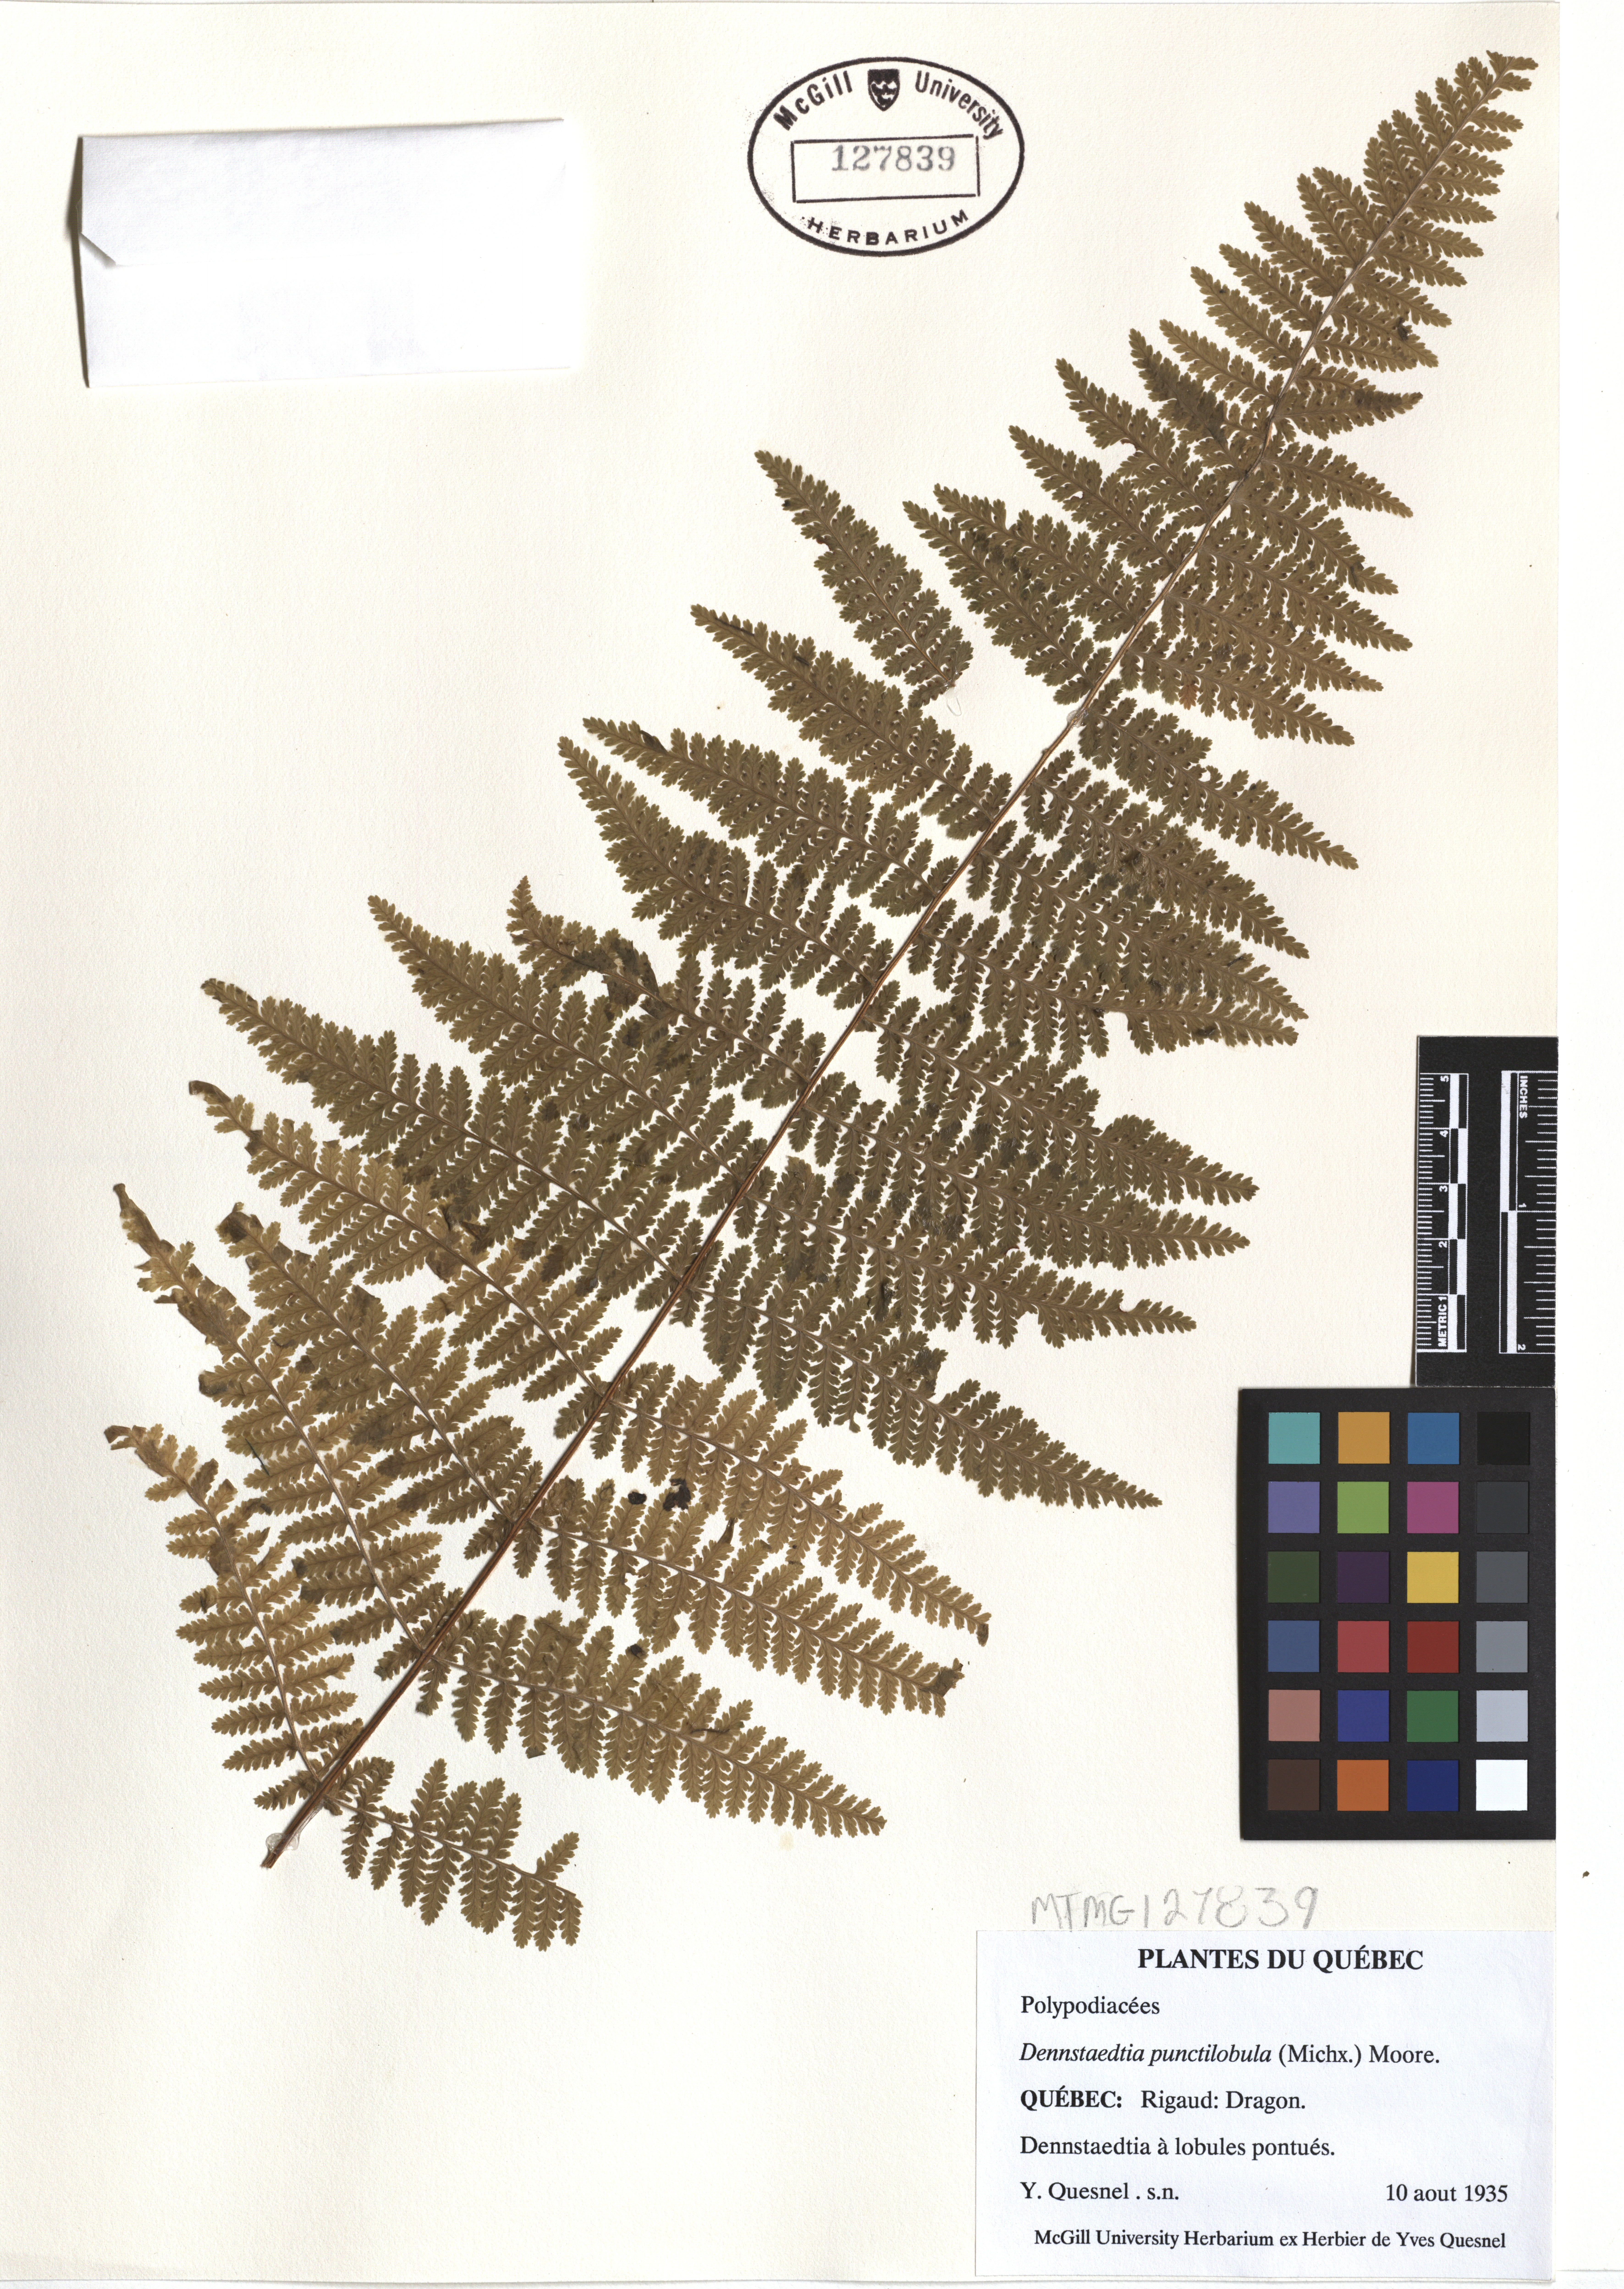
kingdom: Plantae
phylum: Tracheophyta
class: Polypodiopsida
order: Polypodiales
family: Dennstaedtiaceae
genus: Sitobolium
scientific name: Sitobolium punctilobum
